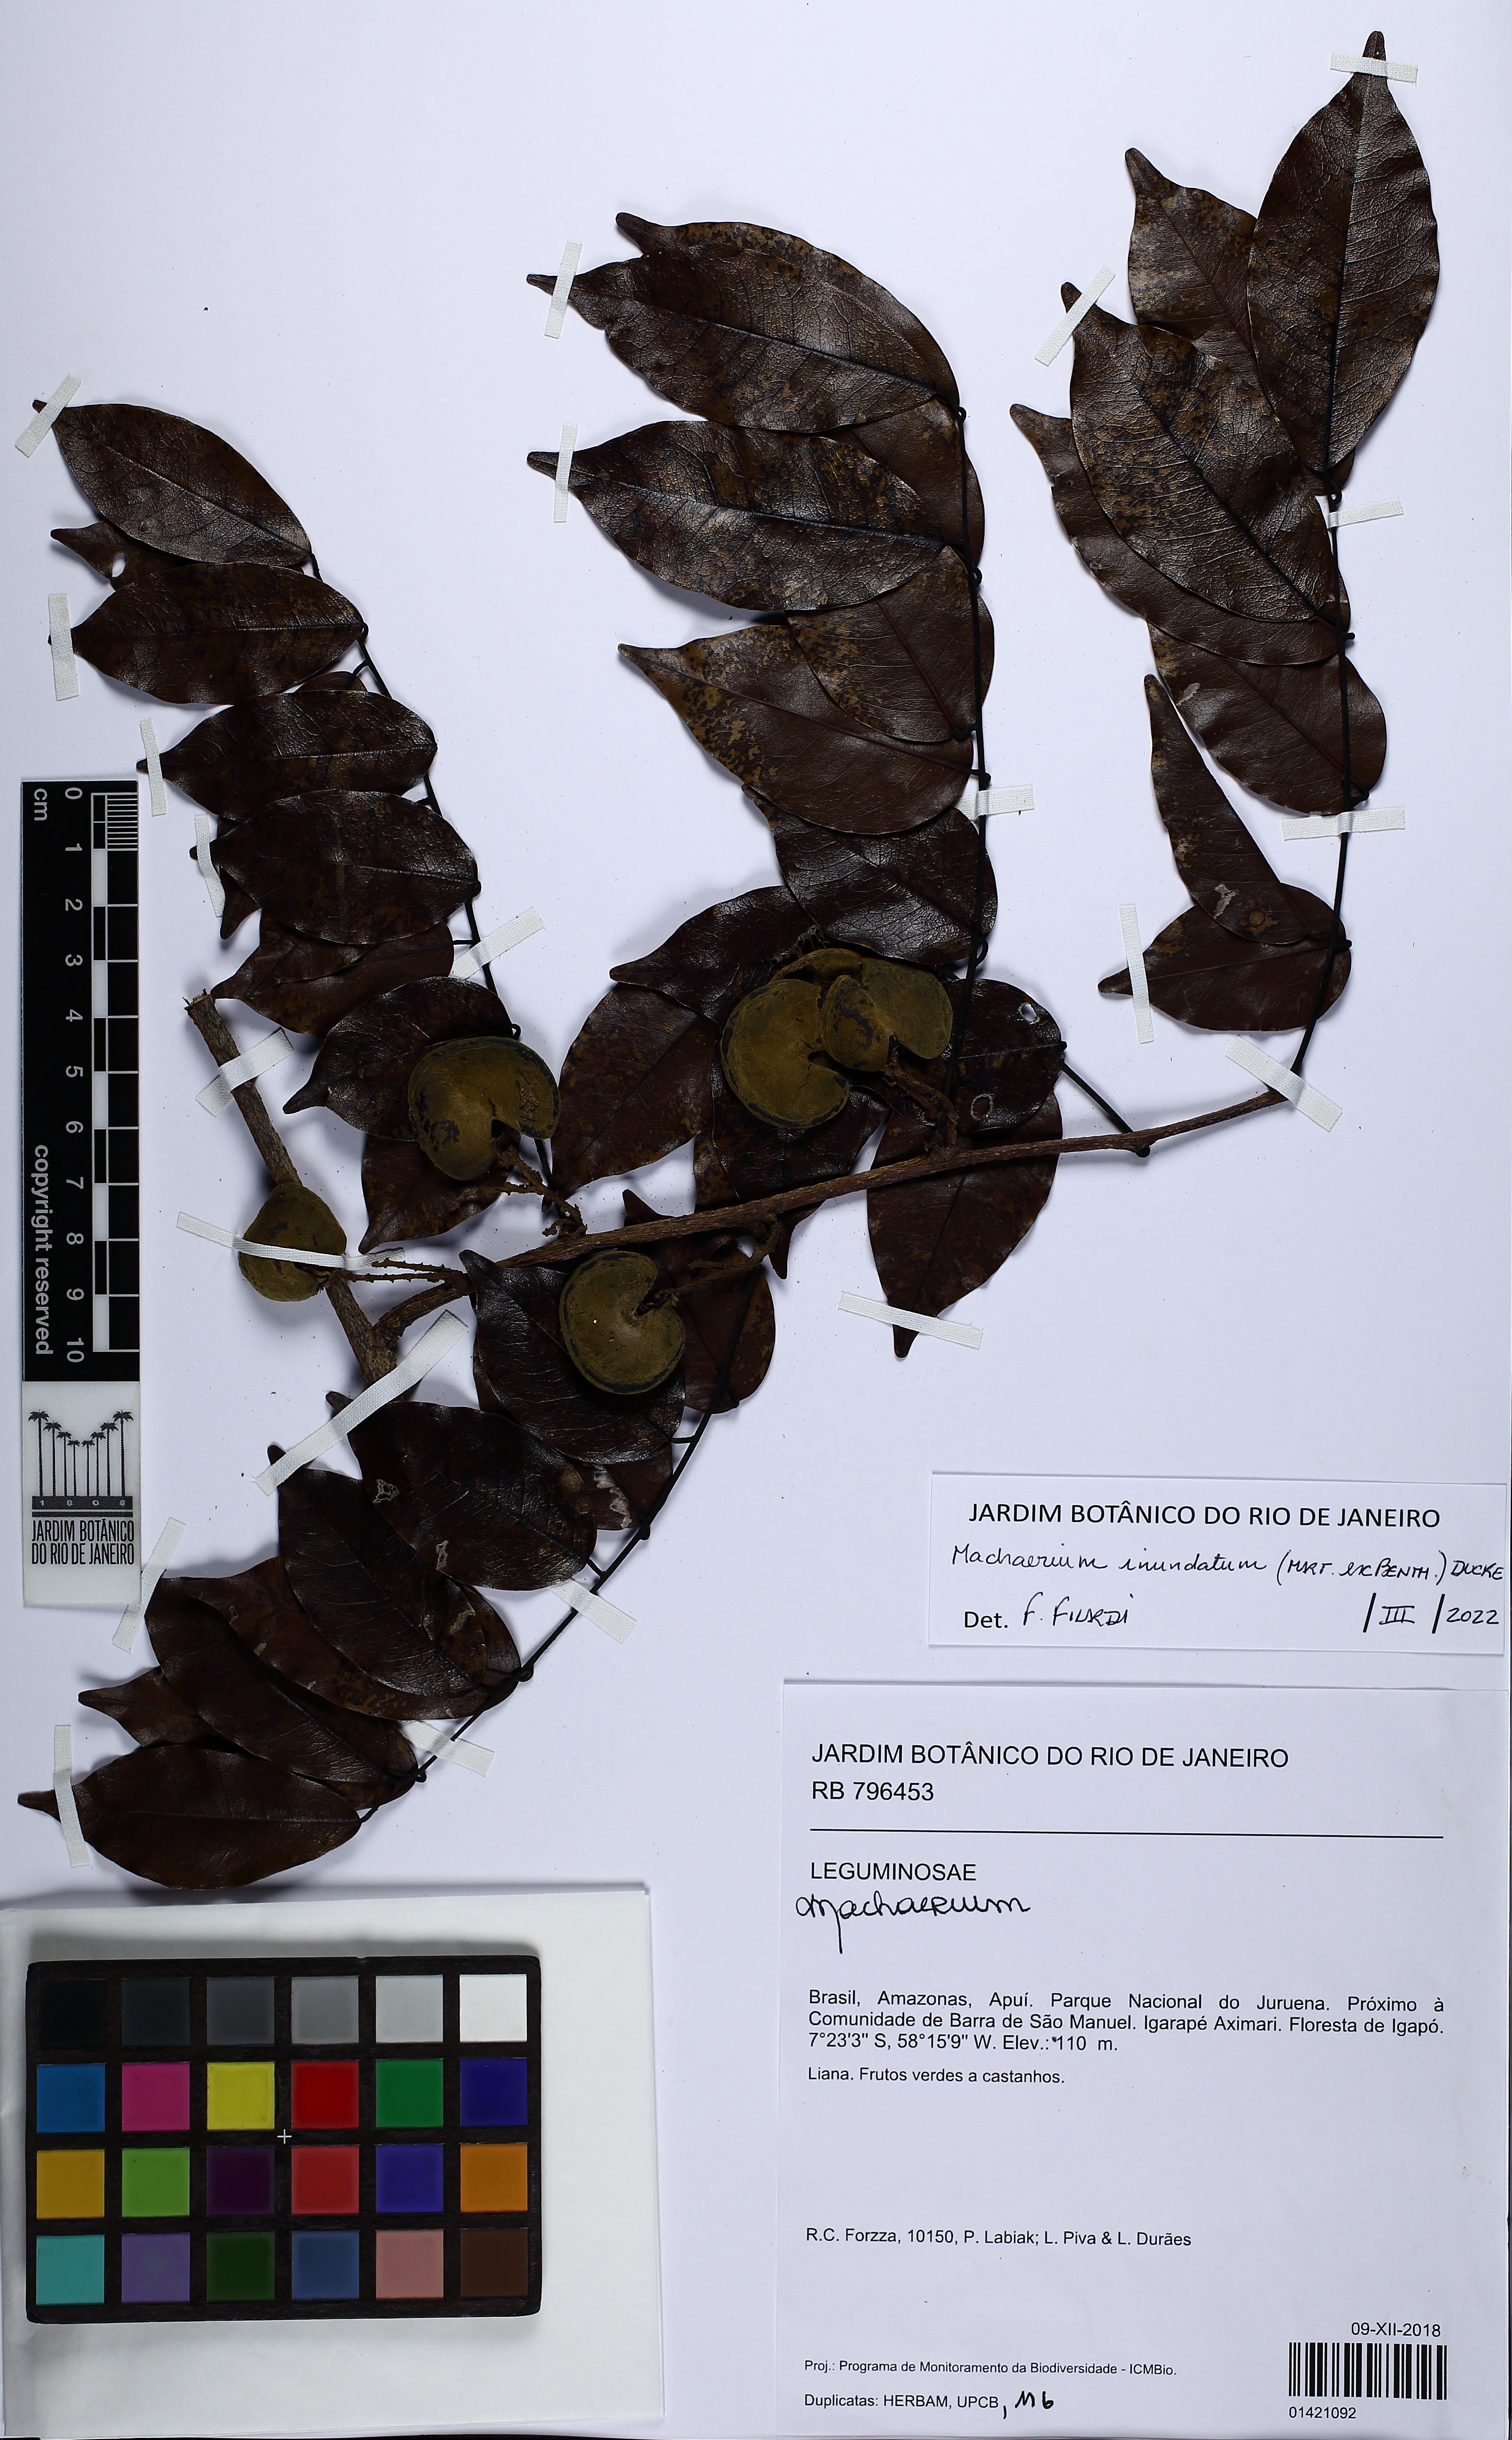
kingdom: Plantae
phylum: Tracheophyta
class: Magnoliopsida
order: Fabales
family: Fabaceae
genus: Machaerium
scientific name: Machaerium inundatum
